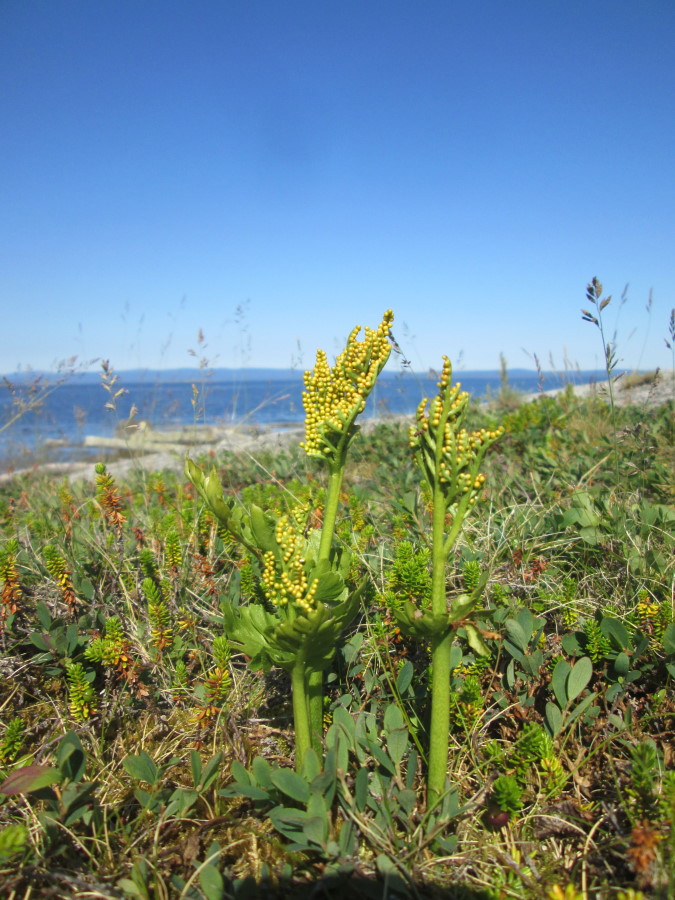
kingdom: Plantae
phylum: Tracheophyta
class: Polypodiopsida
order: Ophioglossales
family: Ophioglossaceae
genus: Botrychium
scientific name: Botrychium boreale
